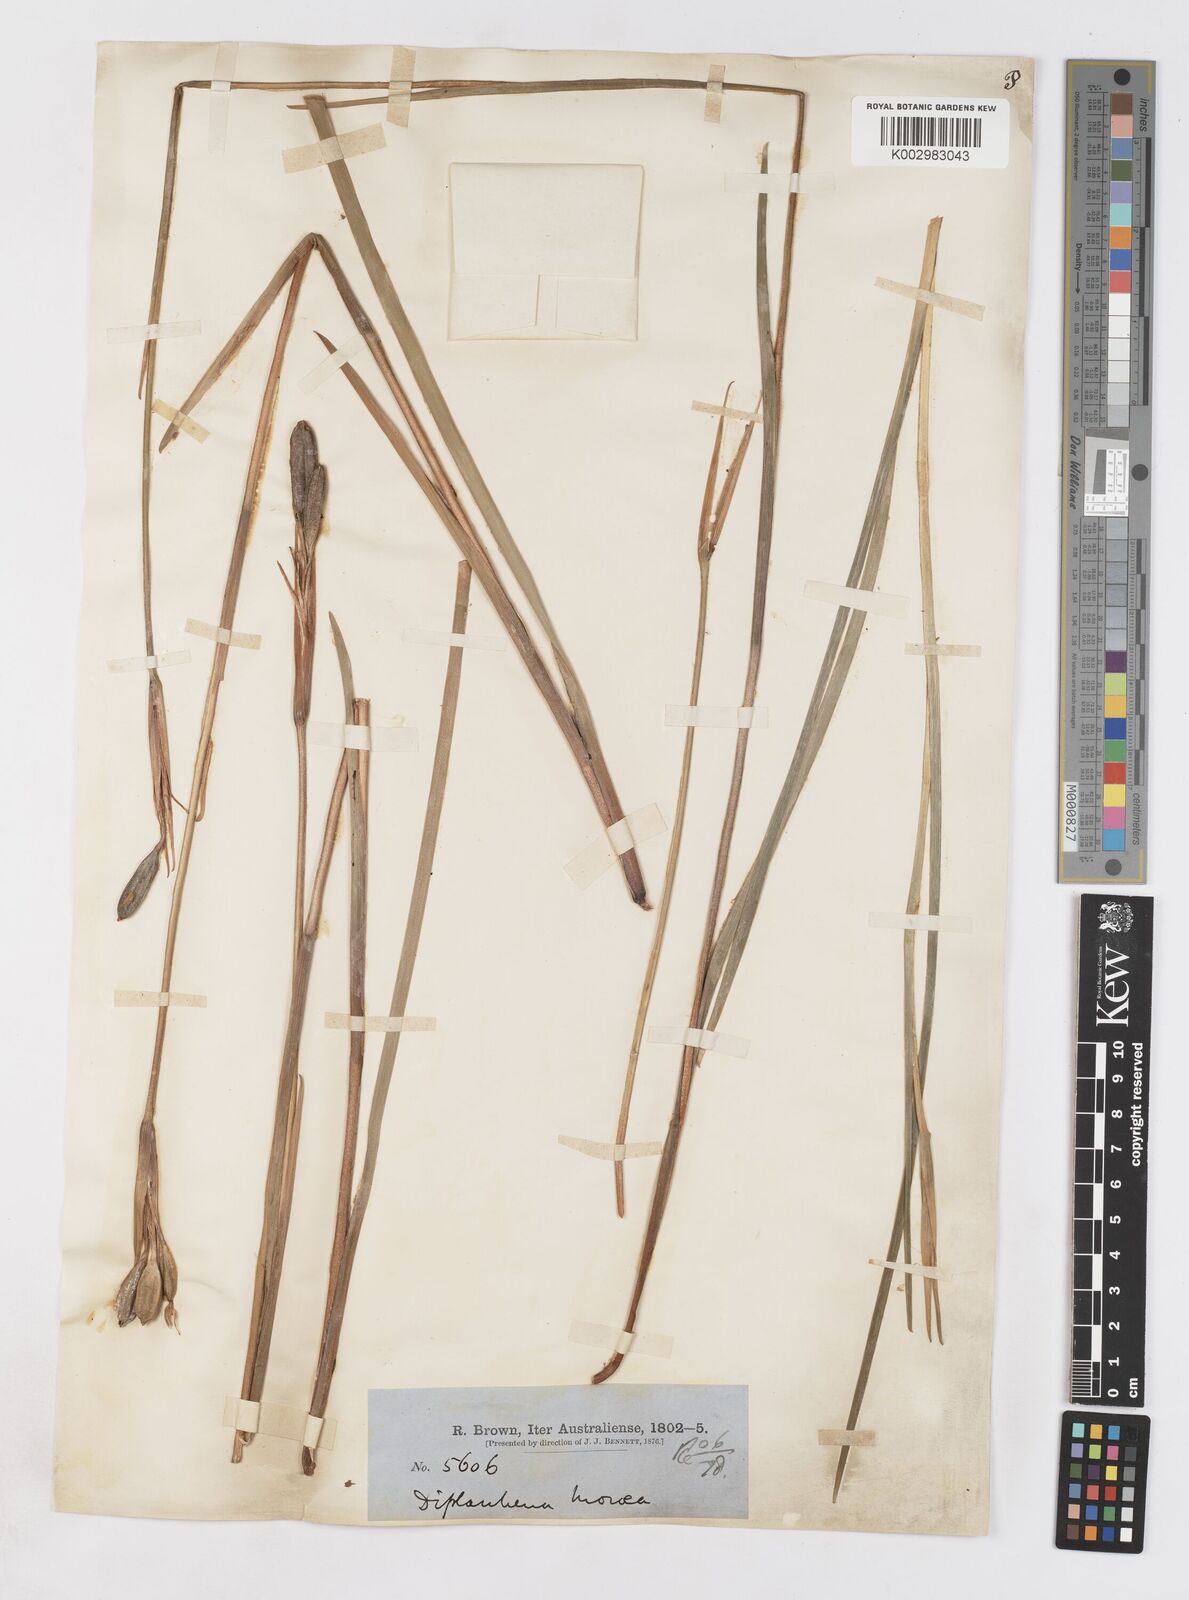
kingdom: Plantae
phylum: Tracheophyta
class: Liliopsida
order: Asparagales
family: Iridaceae
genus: Diplarrena
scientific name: Diplarrena moraea
